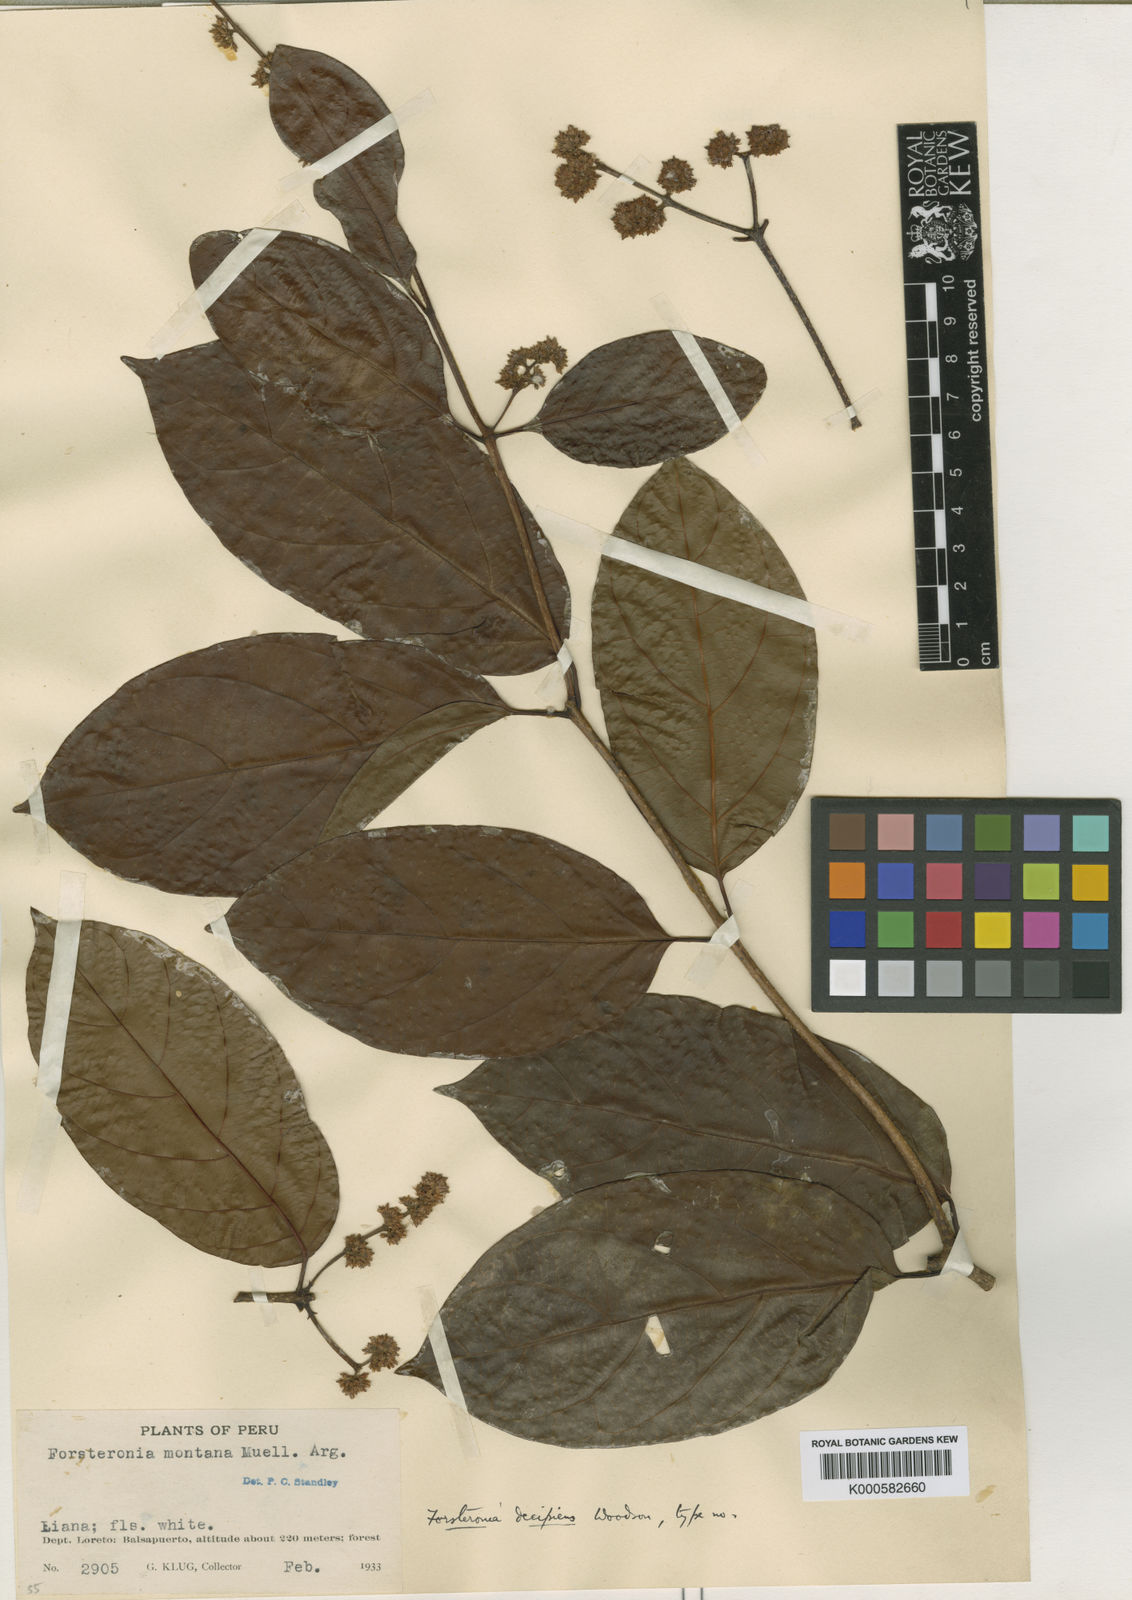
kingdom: Plantae
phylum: Tracheophyta
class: Magnoliopsida
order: Gentianales
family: Apocynaceae
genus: Forsteronia
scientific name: Forsteronia amblybasis
